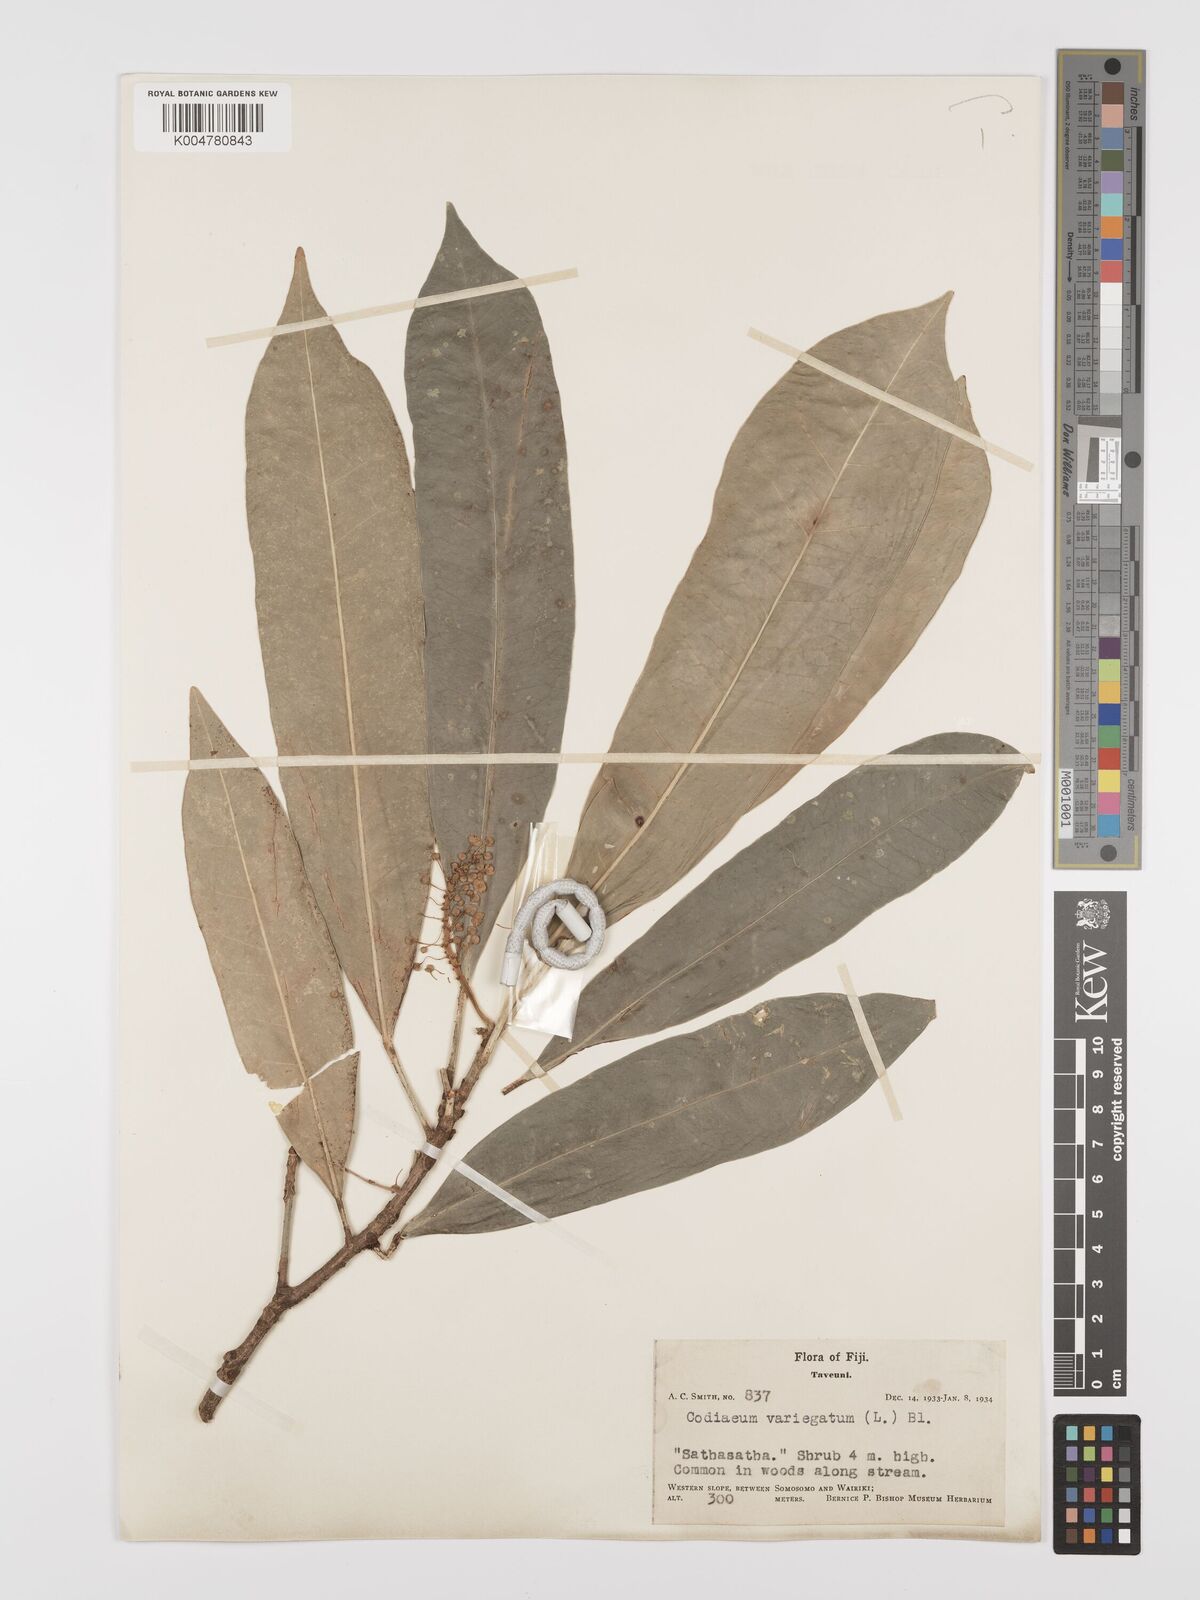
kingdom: Plantae
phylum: Tracheophyta
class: Magnoliopsida
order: Malpighiales
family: Euphorbiaceae
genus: Codiaeum
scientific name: Codiaeum variegatum
